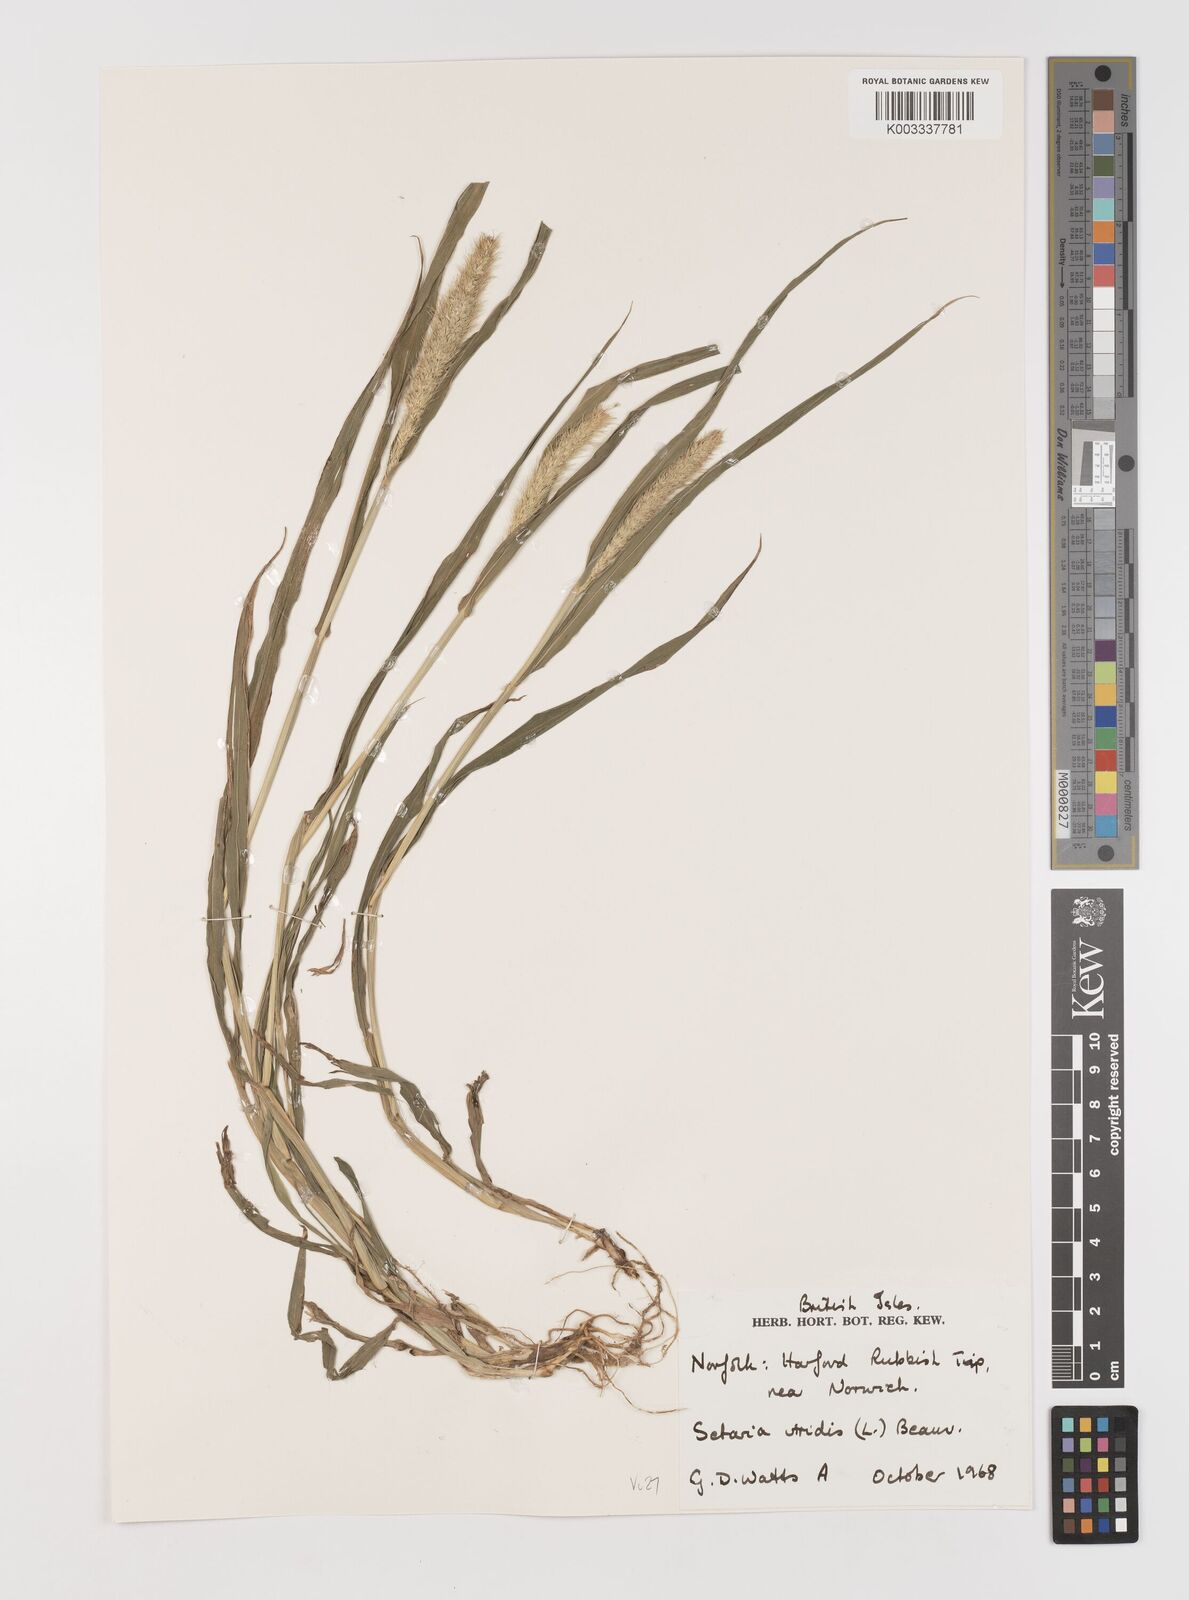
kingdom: Plantae
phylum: Tracheophyta
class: Liliopsida
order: Poales
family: Poaceae
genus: Setaria
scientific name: Setaria viridis
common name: Green bristlegrass
